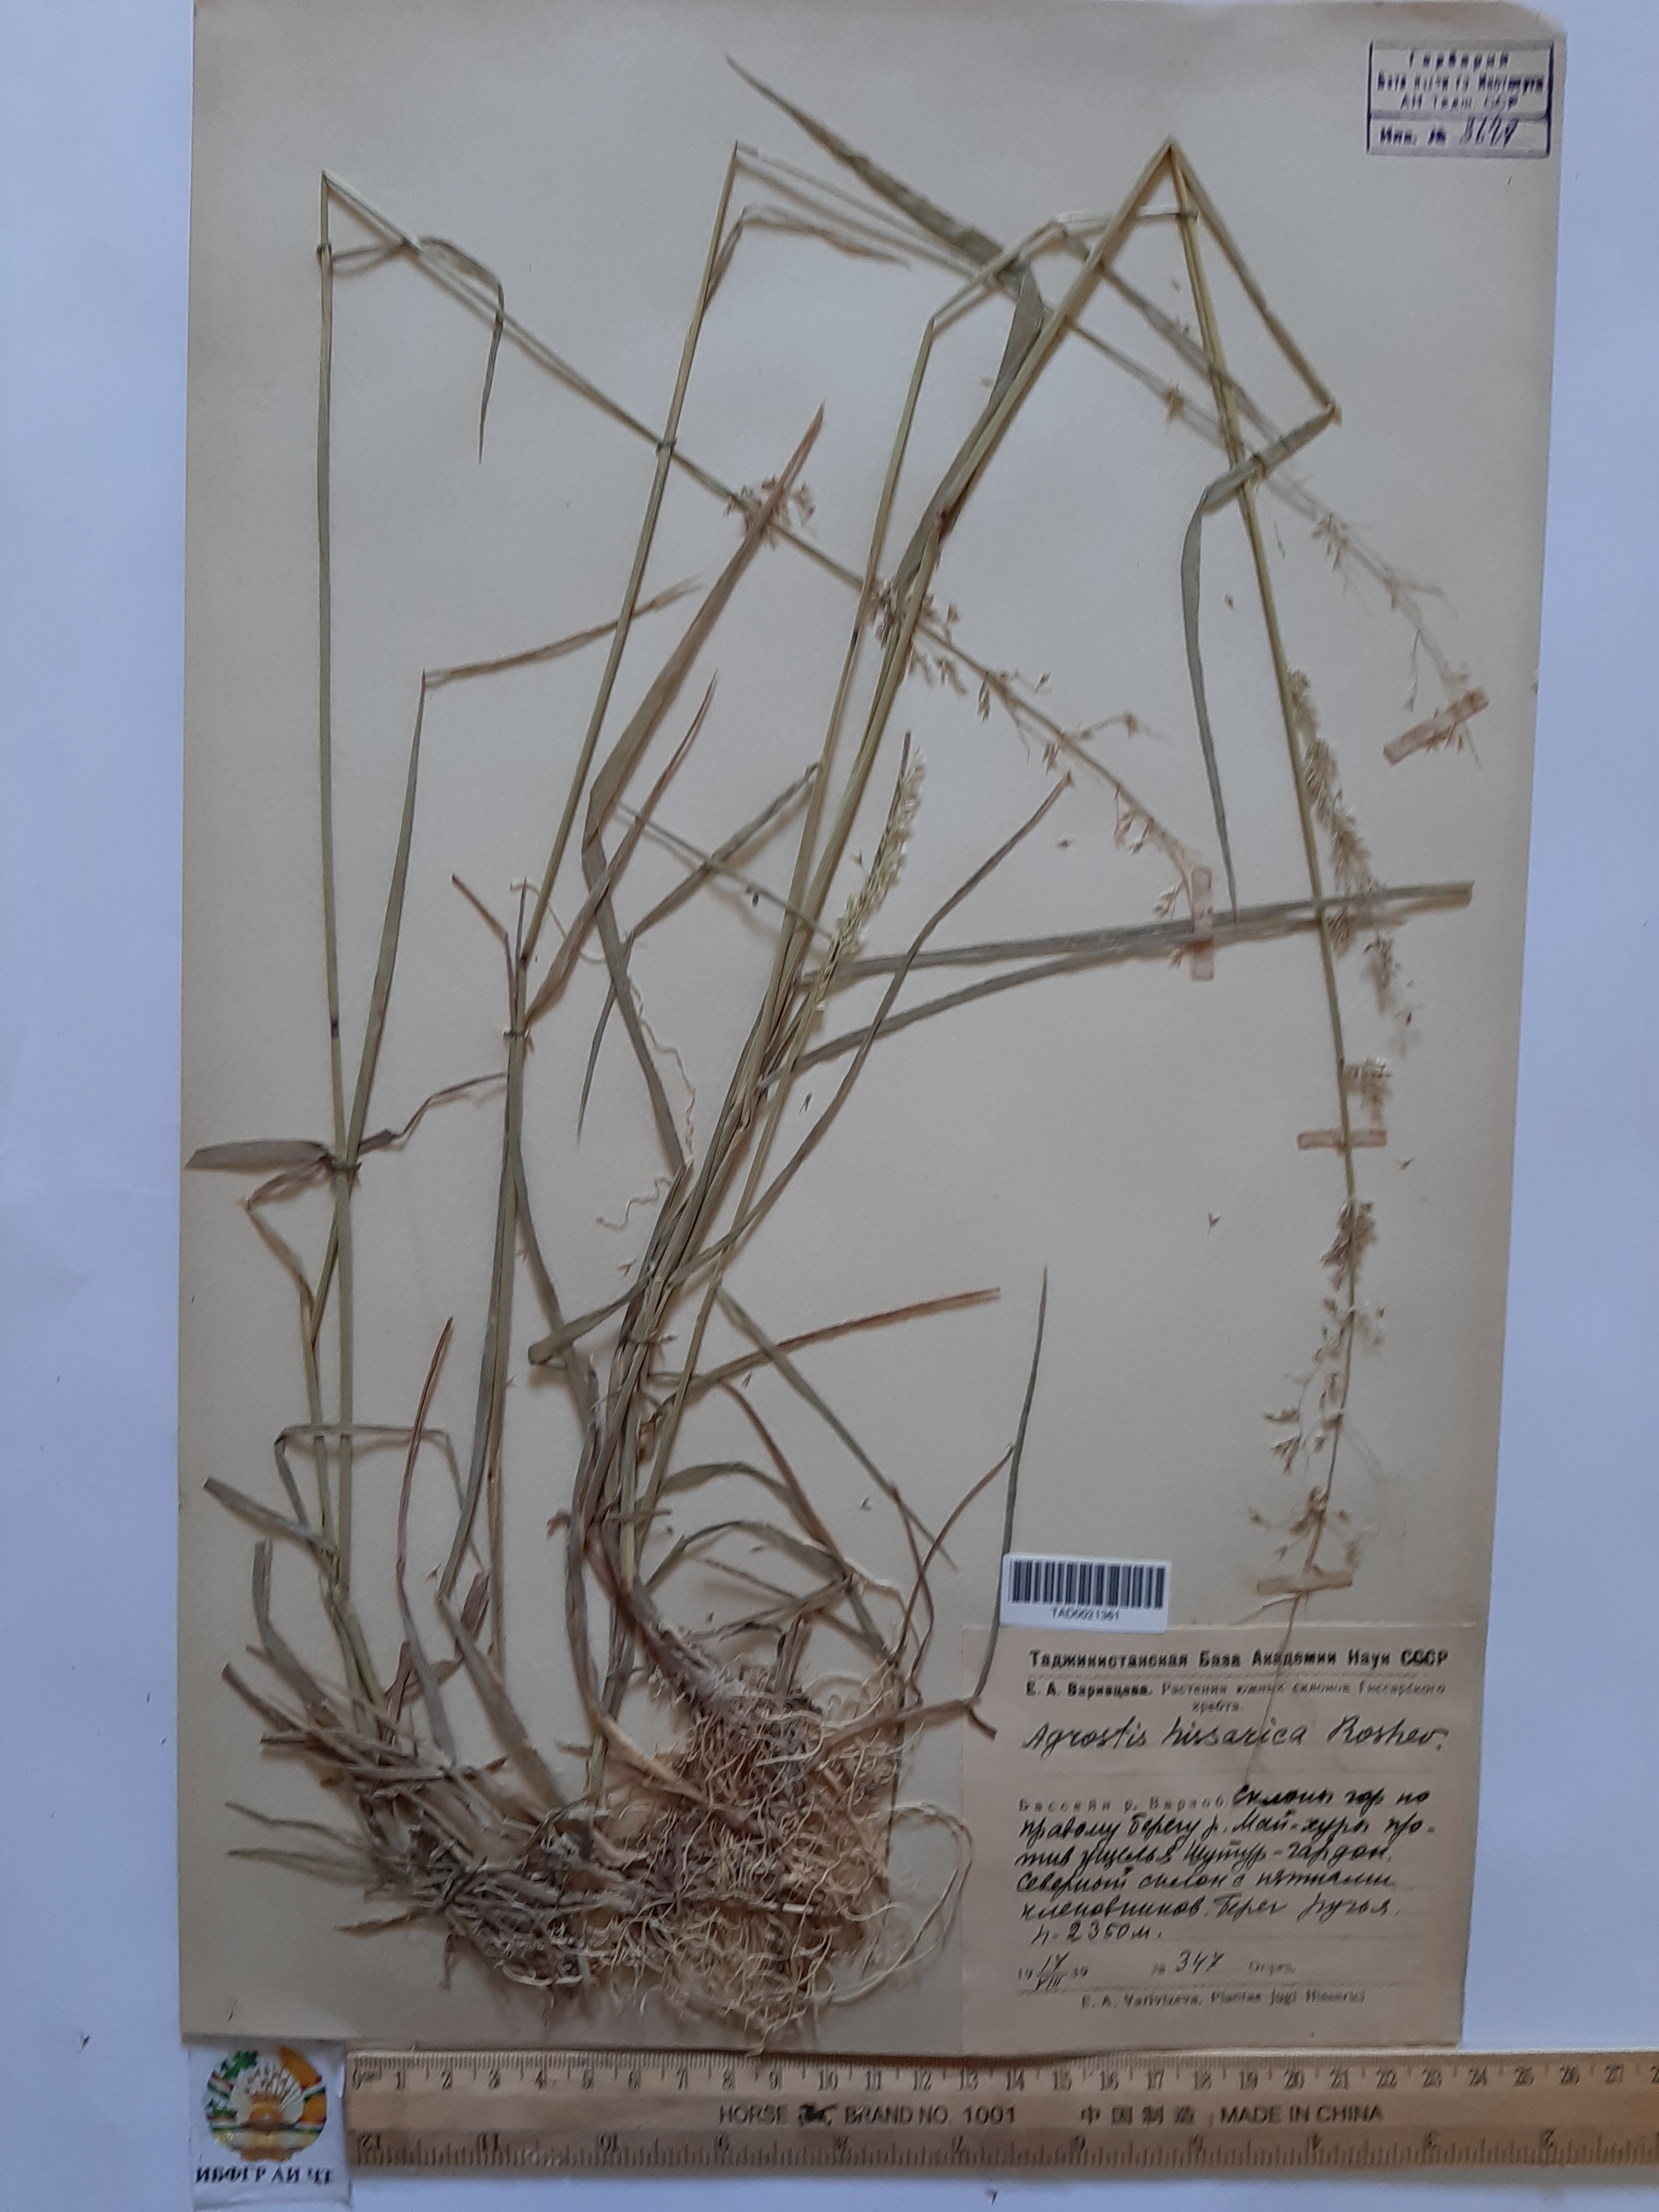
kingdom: Plantae
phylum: Tracheophyta
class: Liliopsida
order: Poales
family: Poaceae
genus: Polypogon
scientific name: Polypogon hissaricus
